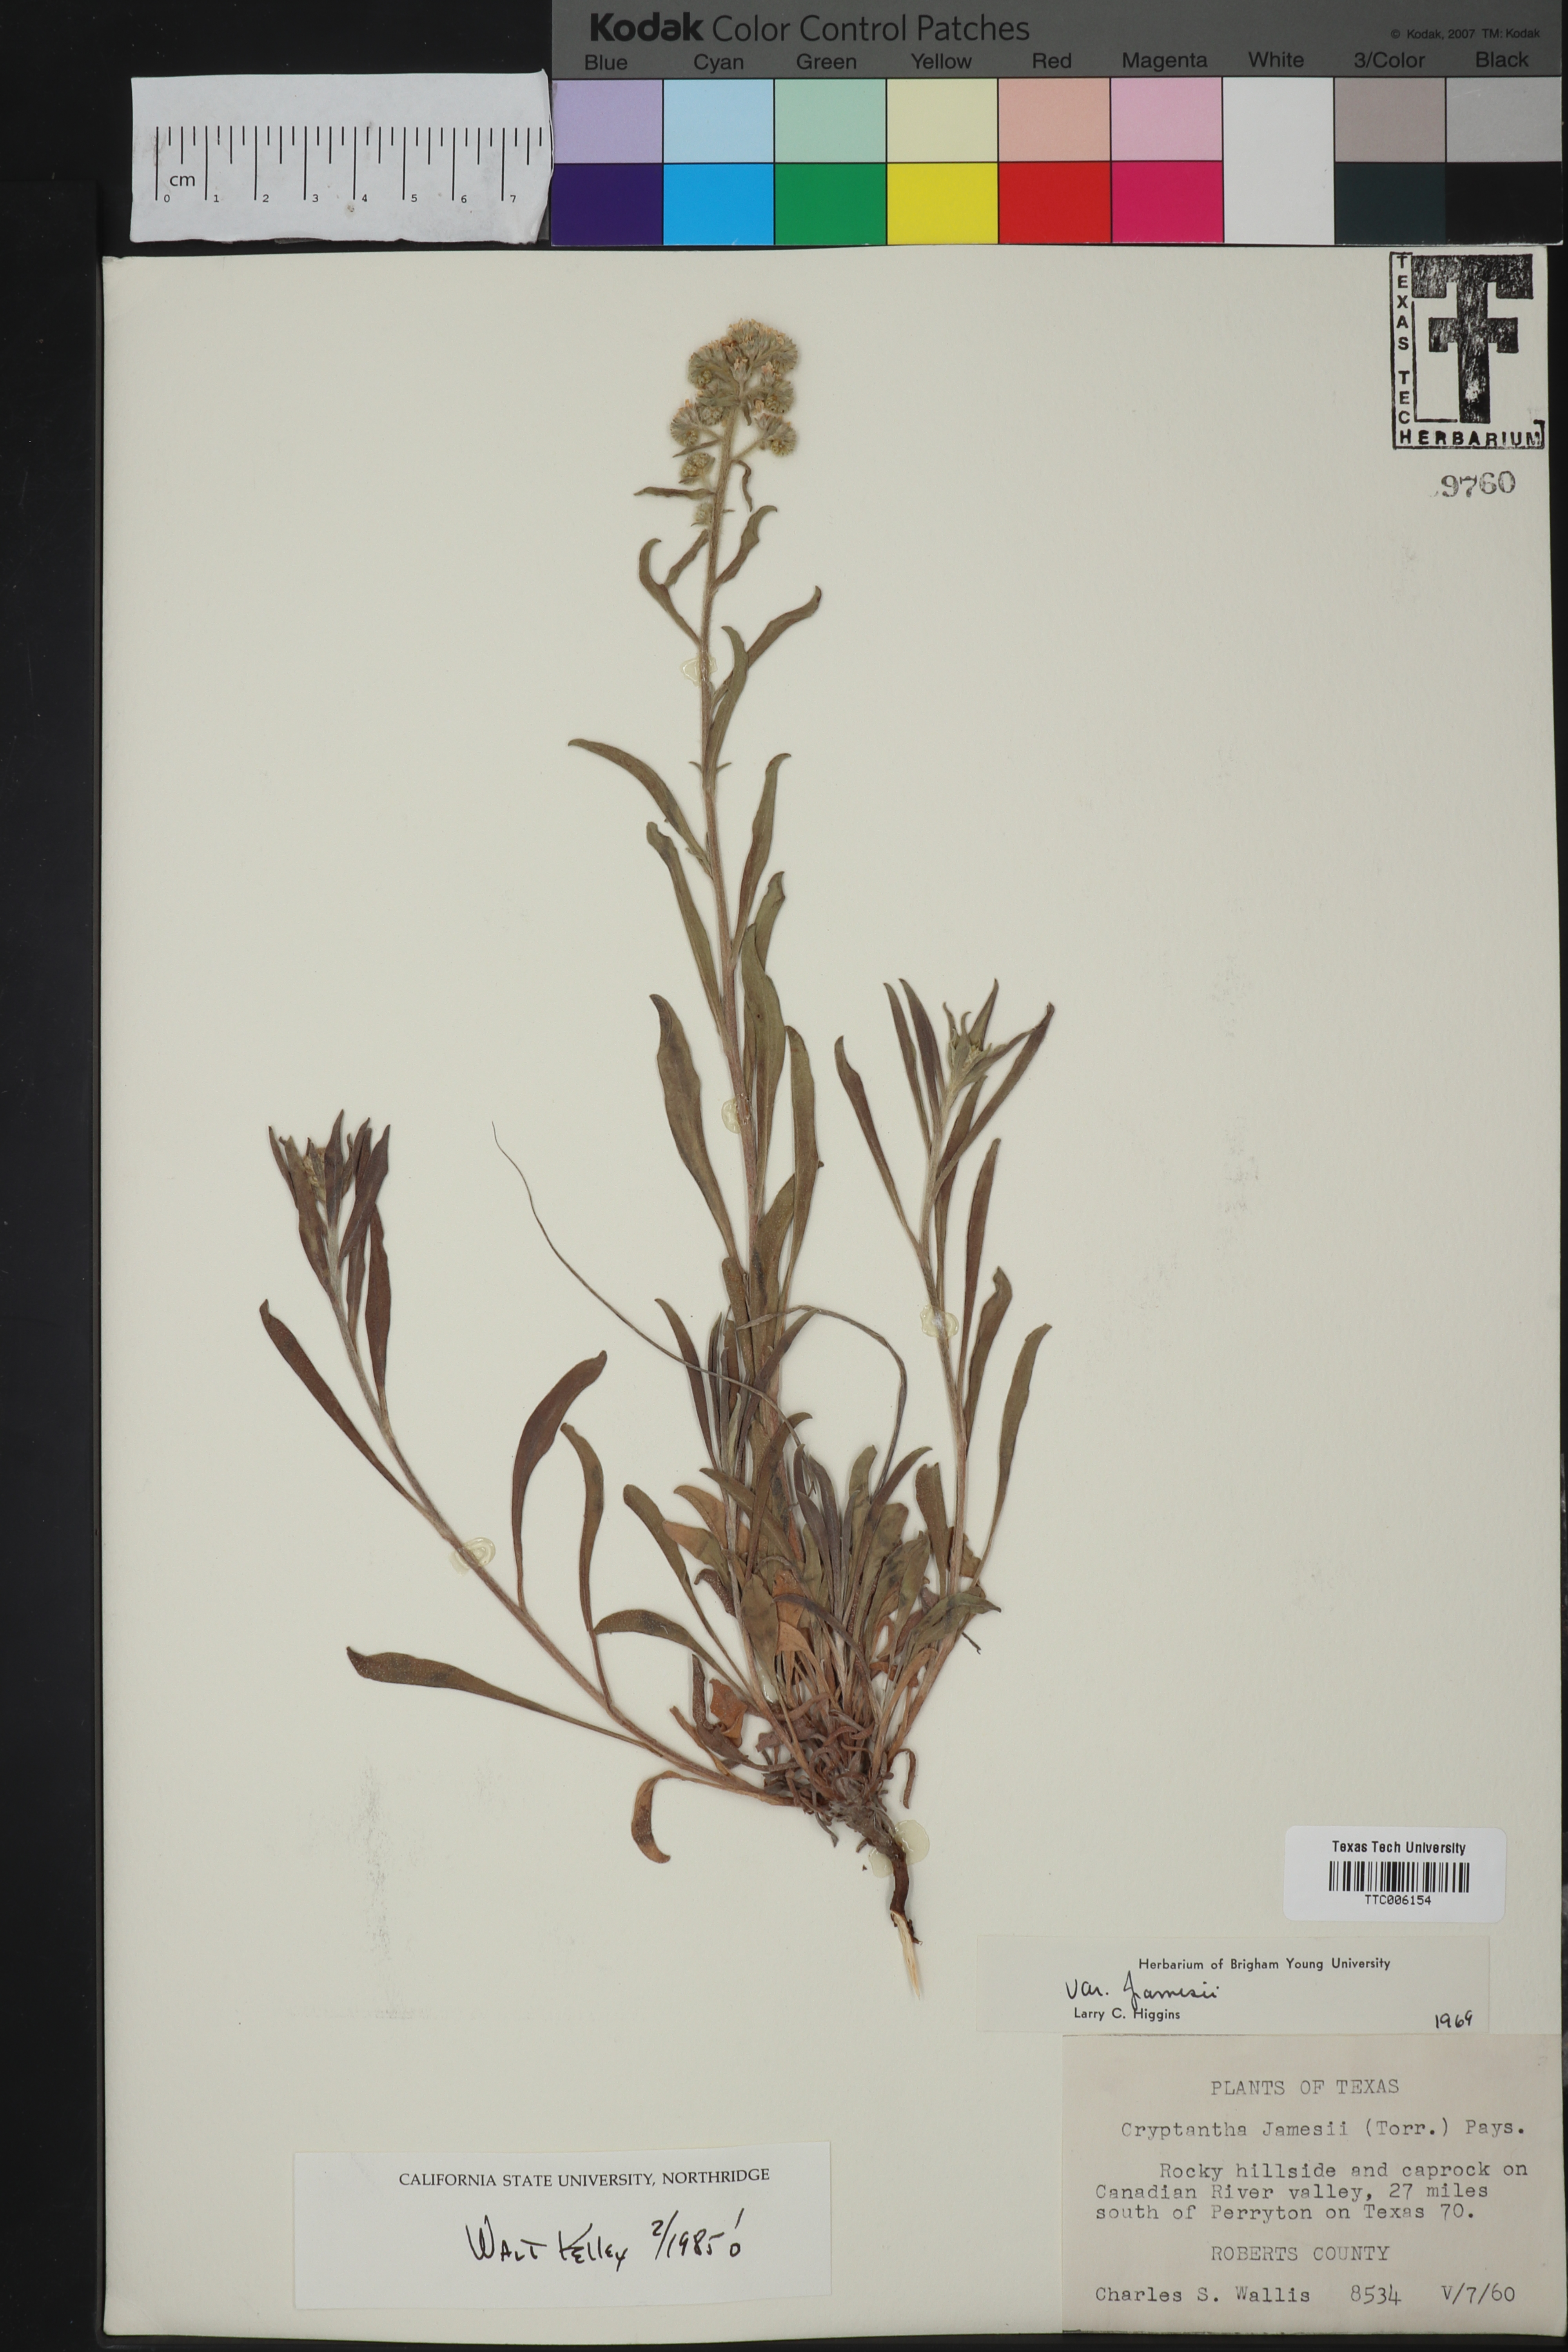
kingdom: Plantae
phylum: Tracheophyta
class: Magnoliopsida
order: Boraginales
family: Boraginaceae
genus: Oreocarya
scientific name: Oreocarya suffruticosa
